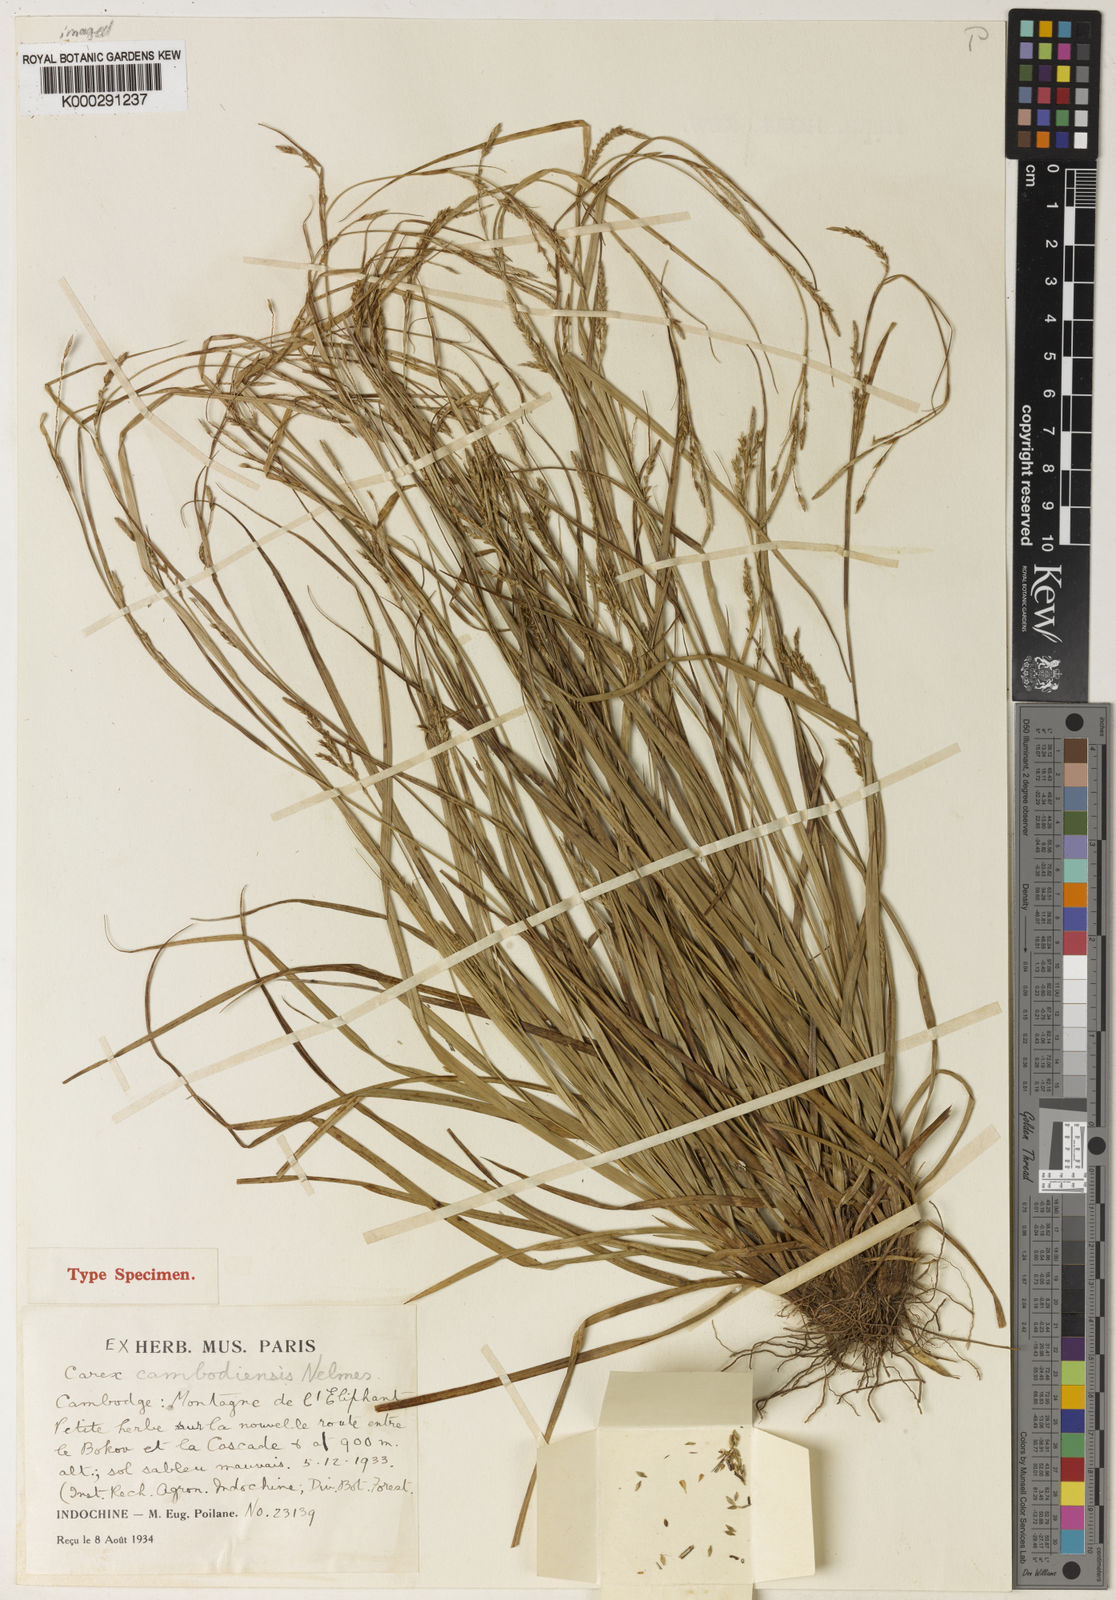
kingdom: Plantae
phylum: Tracheophyta
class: Liliopsida
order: Poales
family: Cyperaceae
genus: Carex
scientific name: Carex cambodiensis
